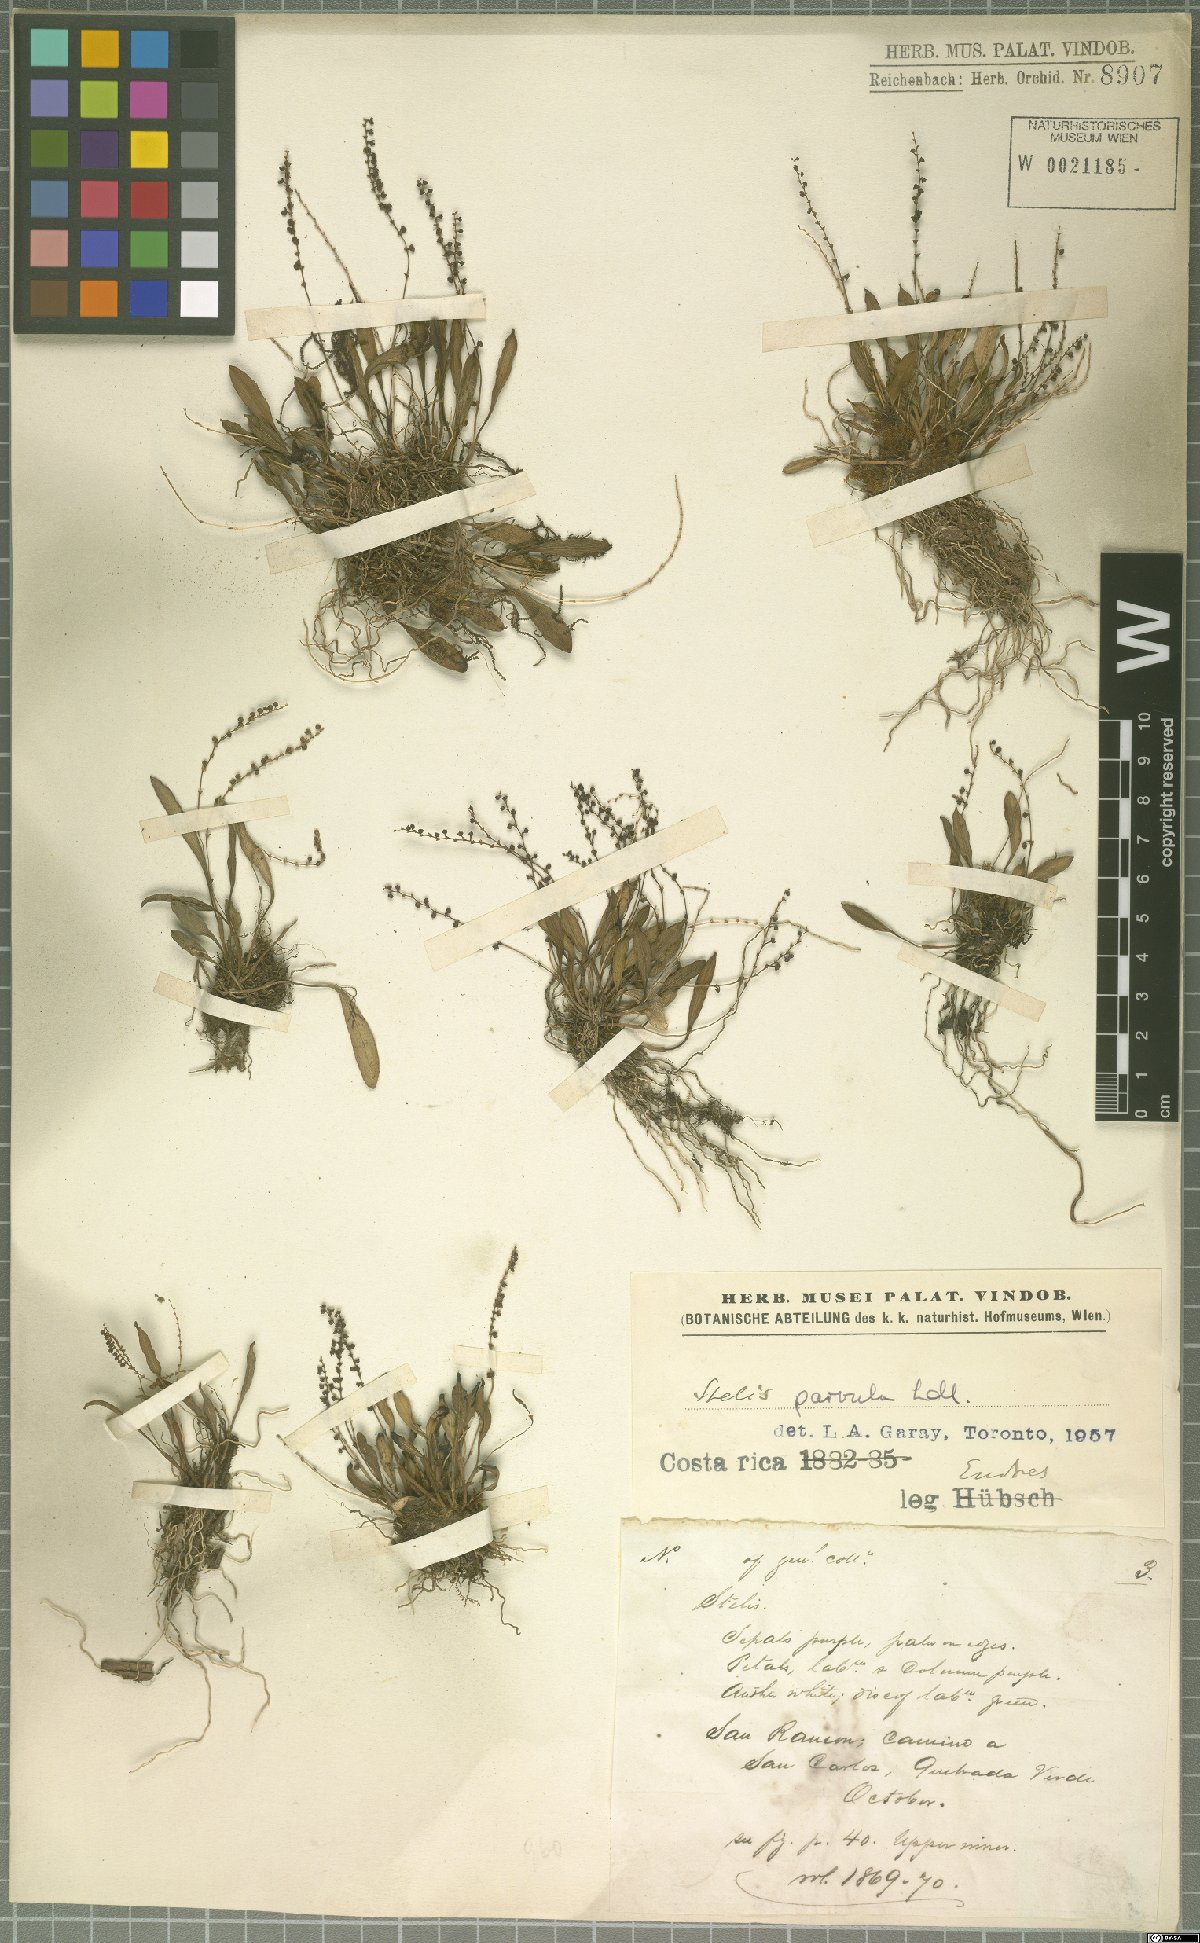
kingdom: Plantae
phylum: Tracheophyta
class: Liliopsida
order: Asparagales
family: Orchidaceae
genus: Stelis
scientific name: Stelis parvula
